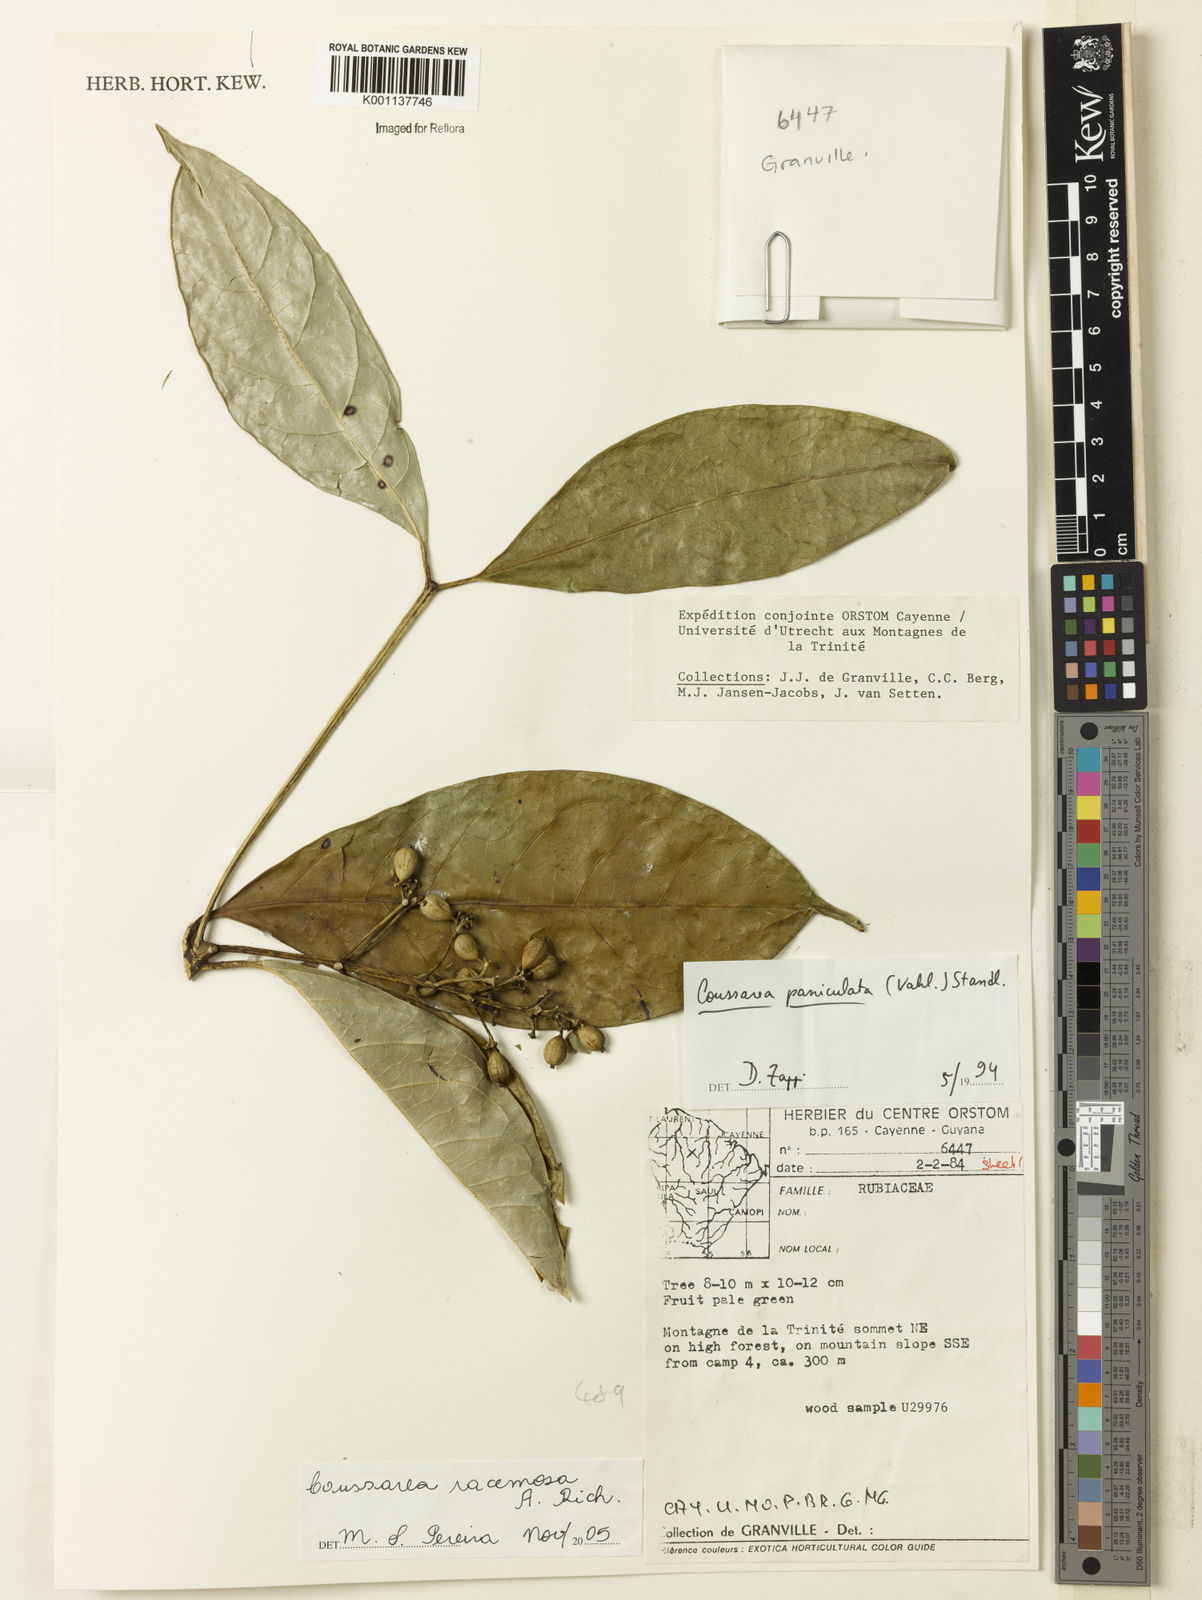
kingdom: Plantae
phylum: Tracheophyta
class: Magnoliopsida
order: Gentianales
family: Rubiaceae
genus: Coussarea
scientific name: Coussarea
